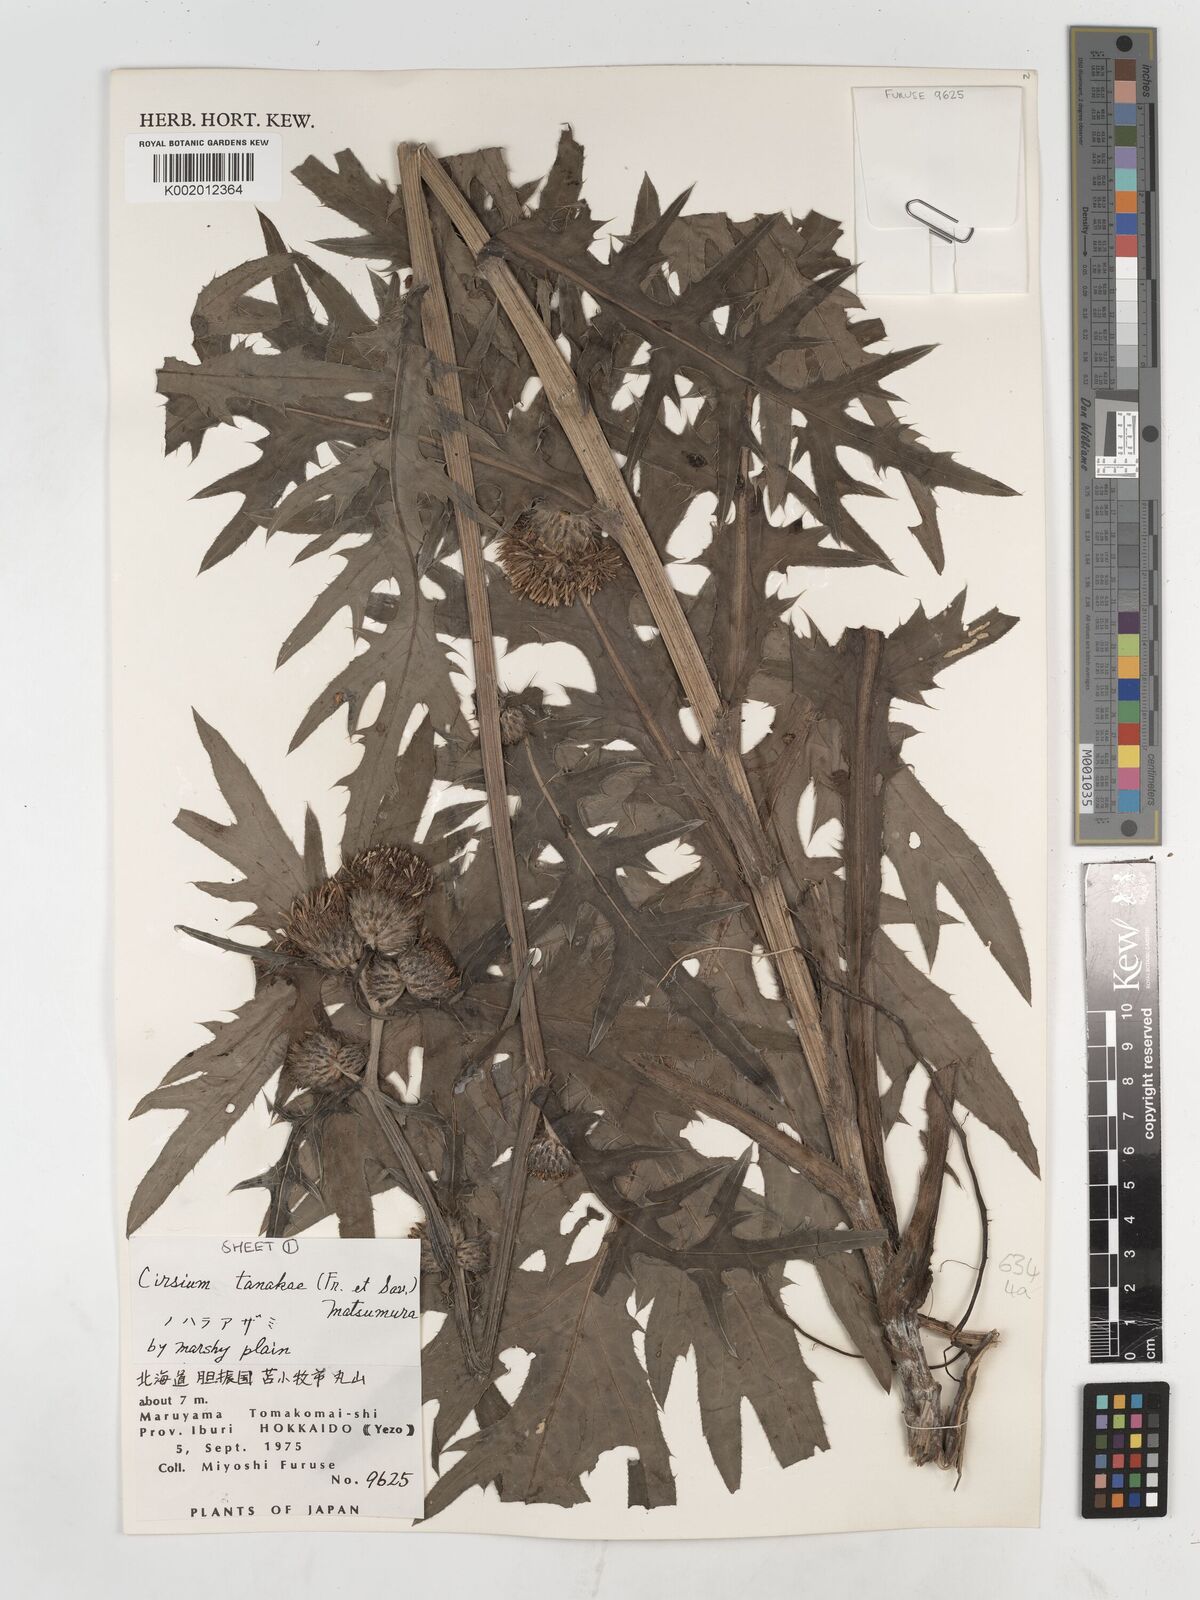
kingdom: Plantae
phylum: Tracheophyta
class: Magnoliopsida
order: Asterales
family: Asteraceae
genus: Cirsium
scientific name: Cirsium nipponicum
